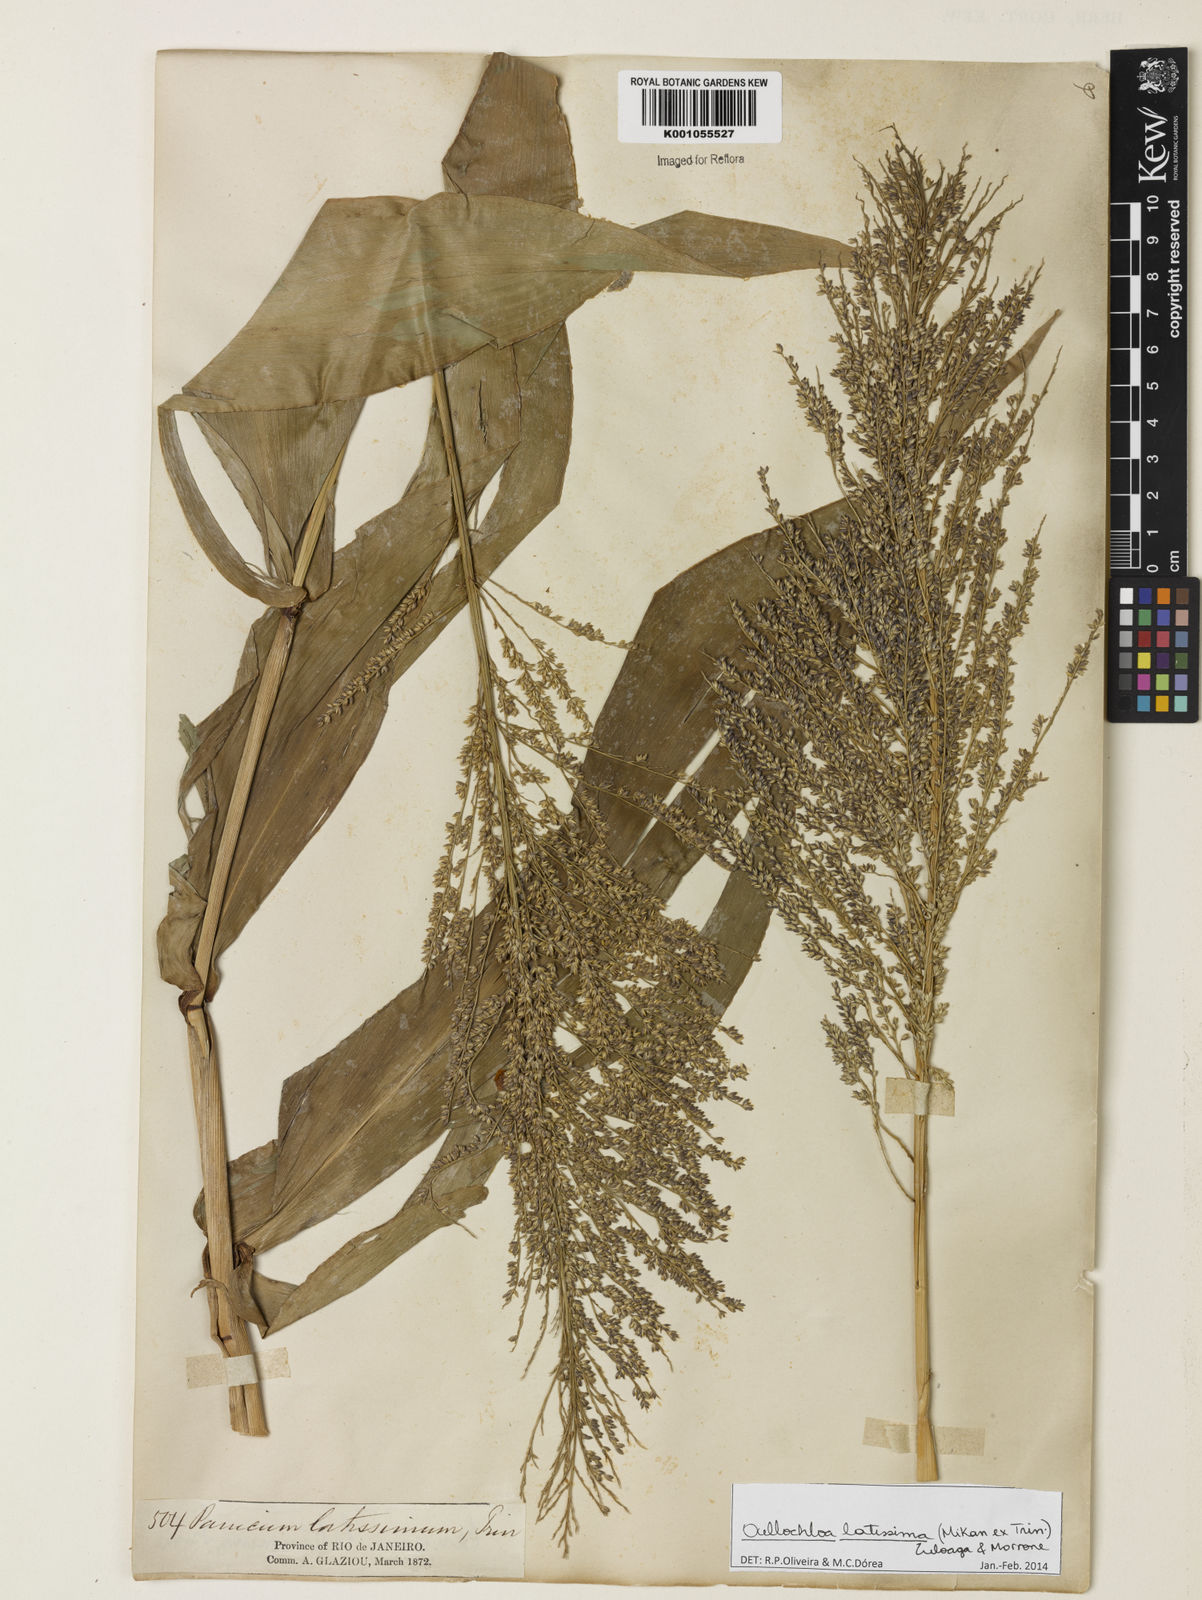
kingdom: Plantae
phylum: Tracheophyta
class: Liliopsida
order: Poales
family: Poaceae
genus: Ocellochloa
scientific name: Ocellochloa latissima
